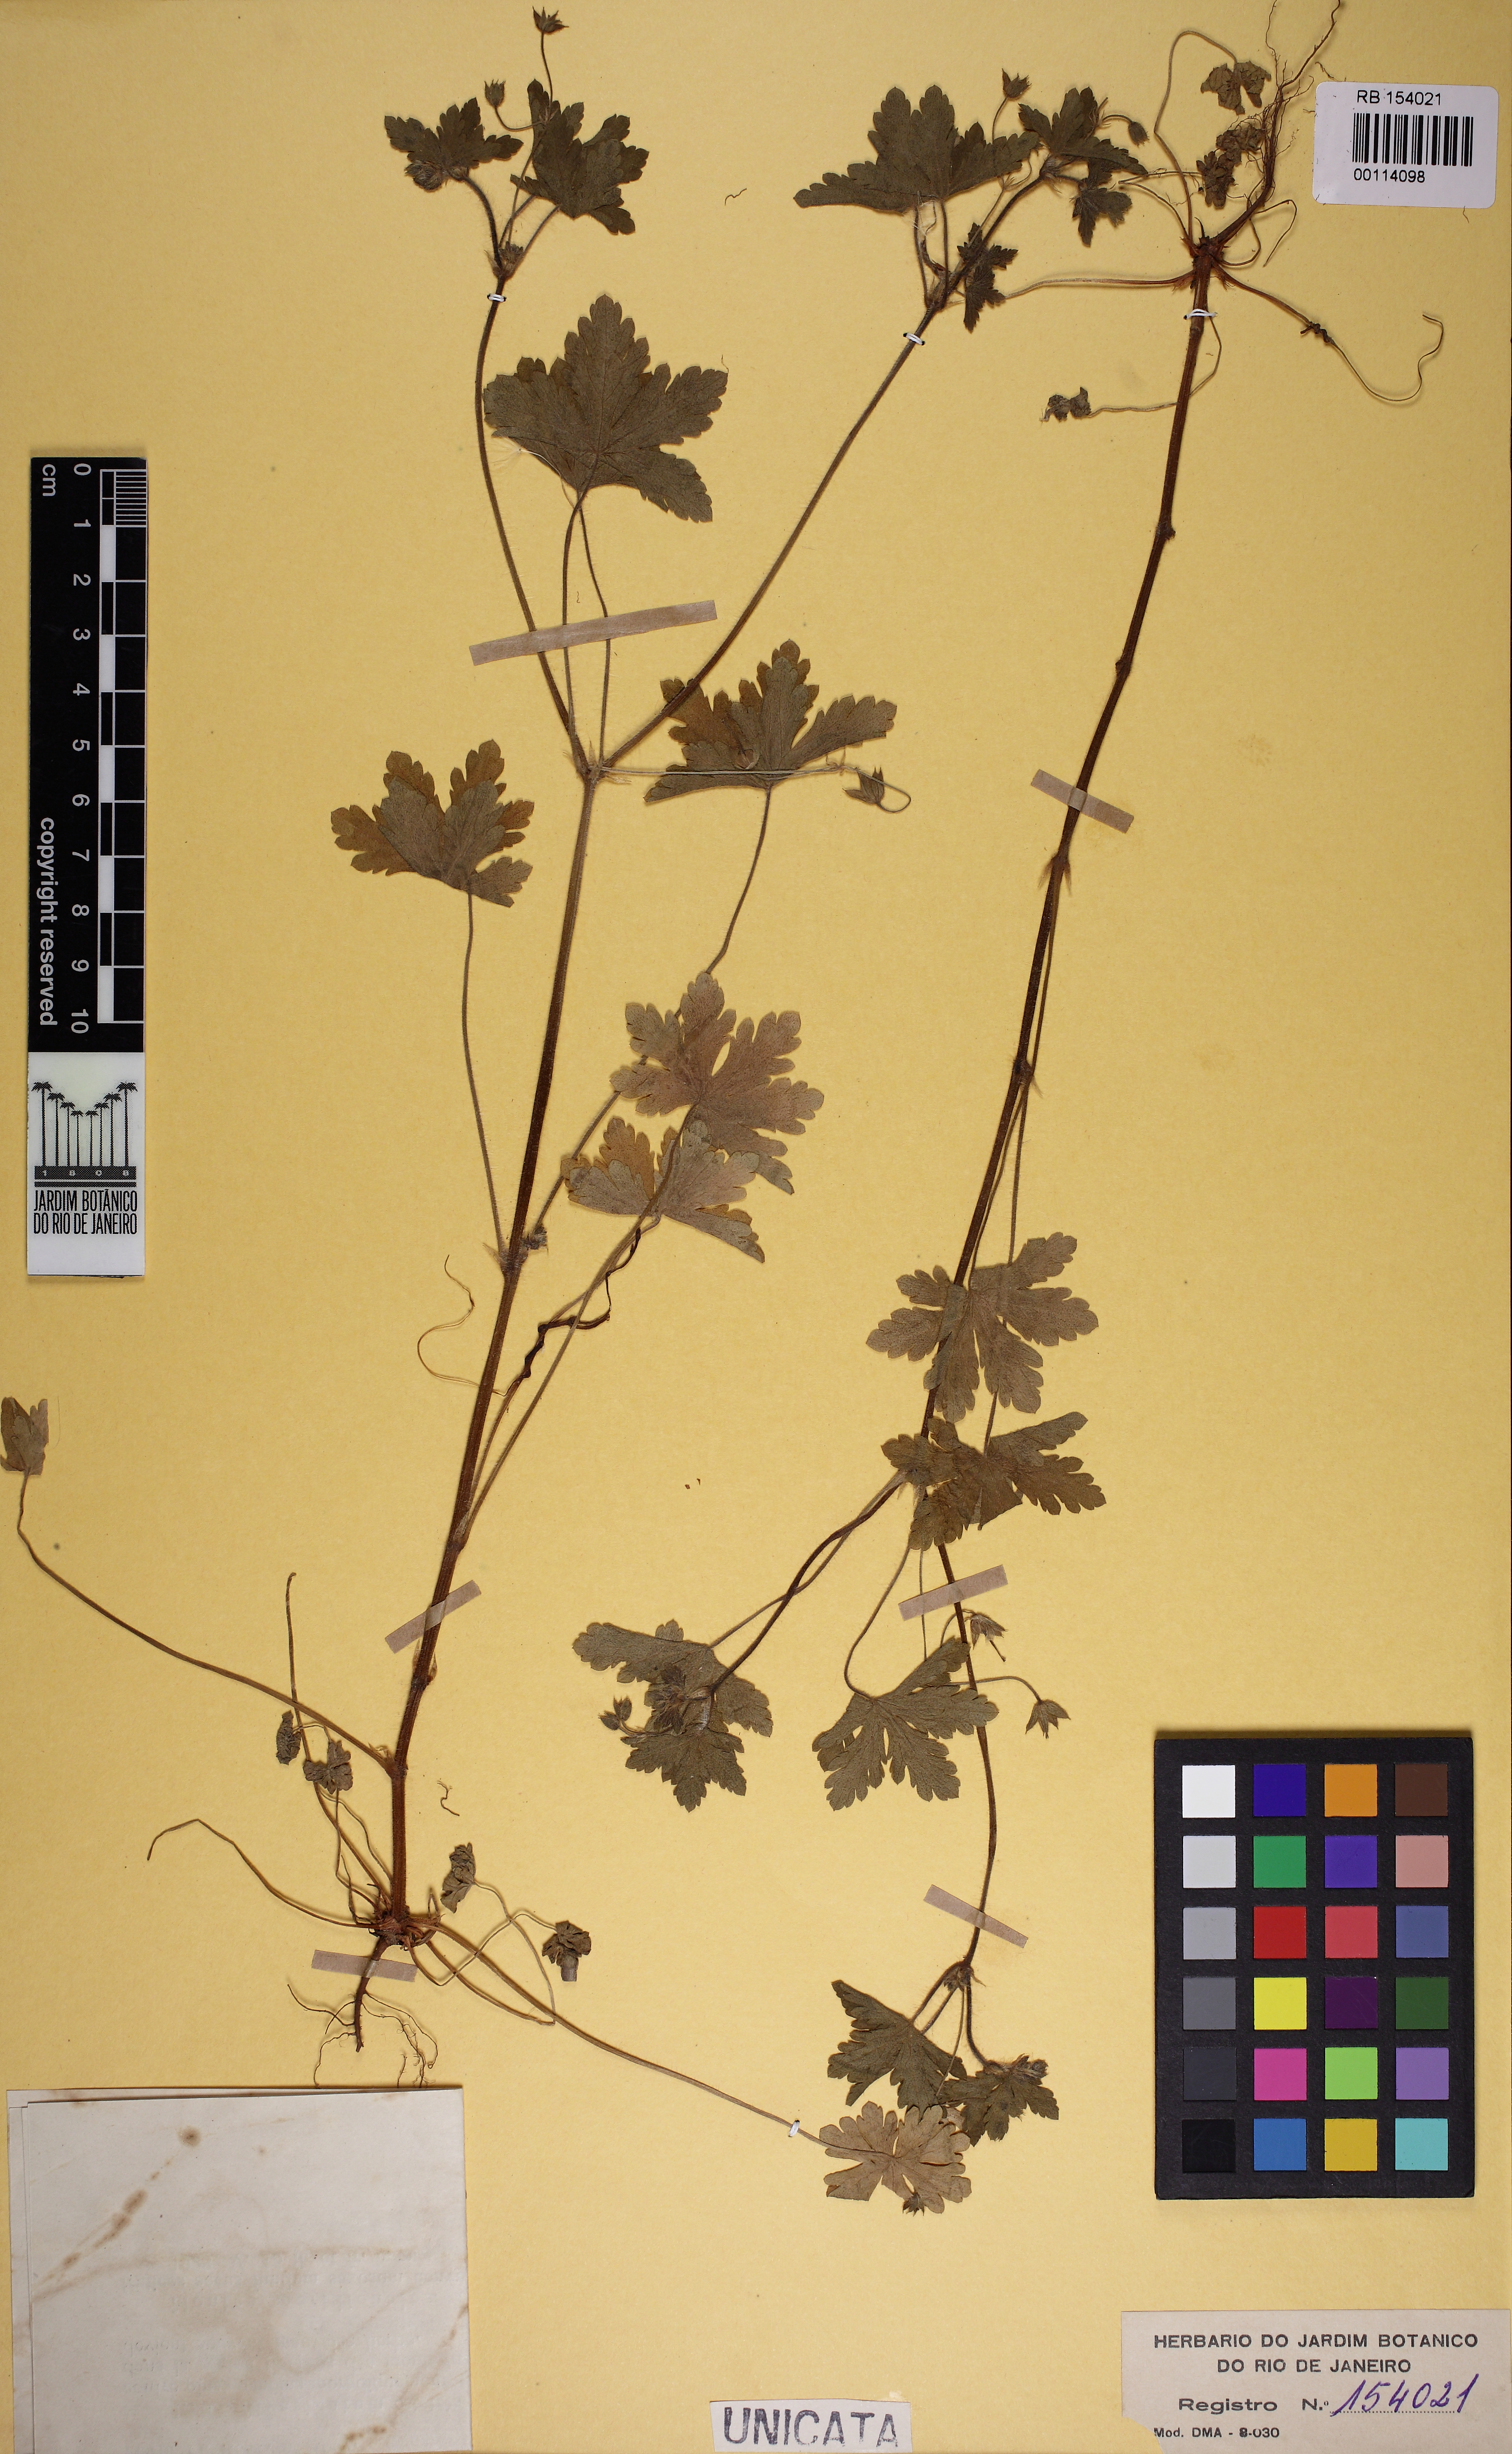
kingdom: Plantae
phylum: Tracheophyta
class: Magnoliopsida
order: Geraniales
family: Geraniaceae
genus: Geranium
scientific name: Geranium divaricatum
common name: Spreading crane's-bill
